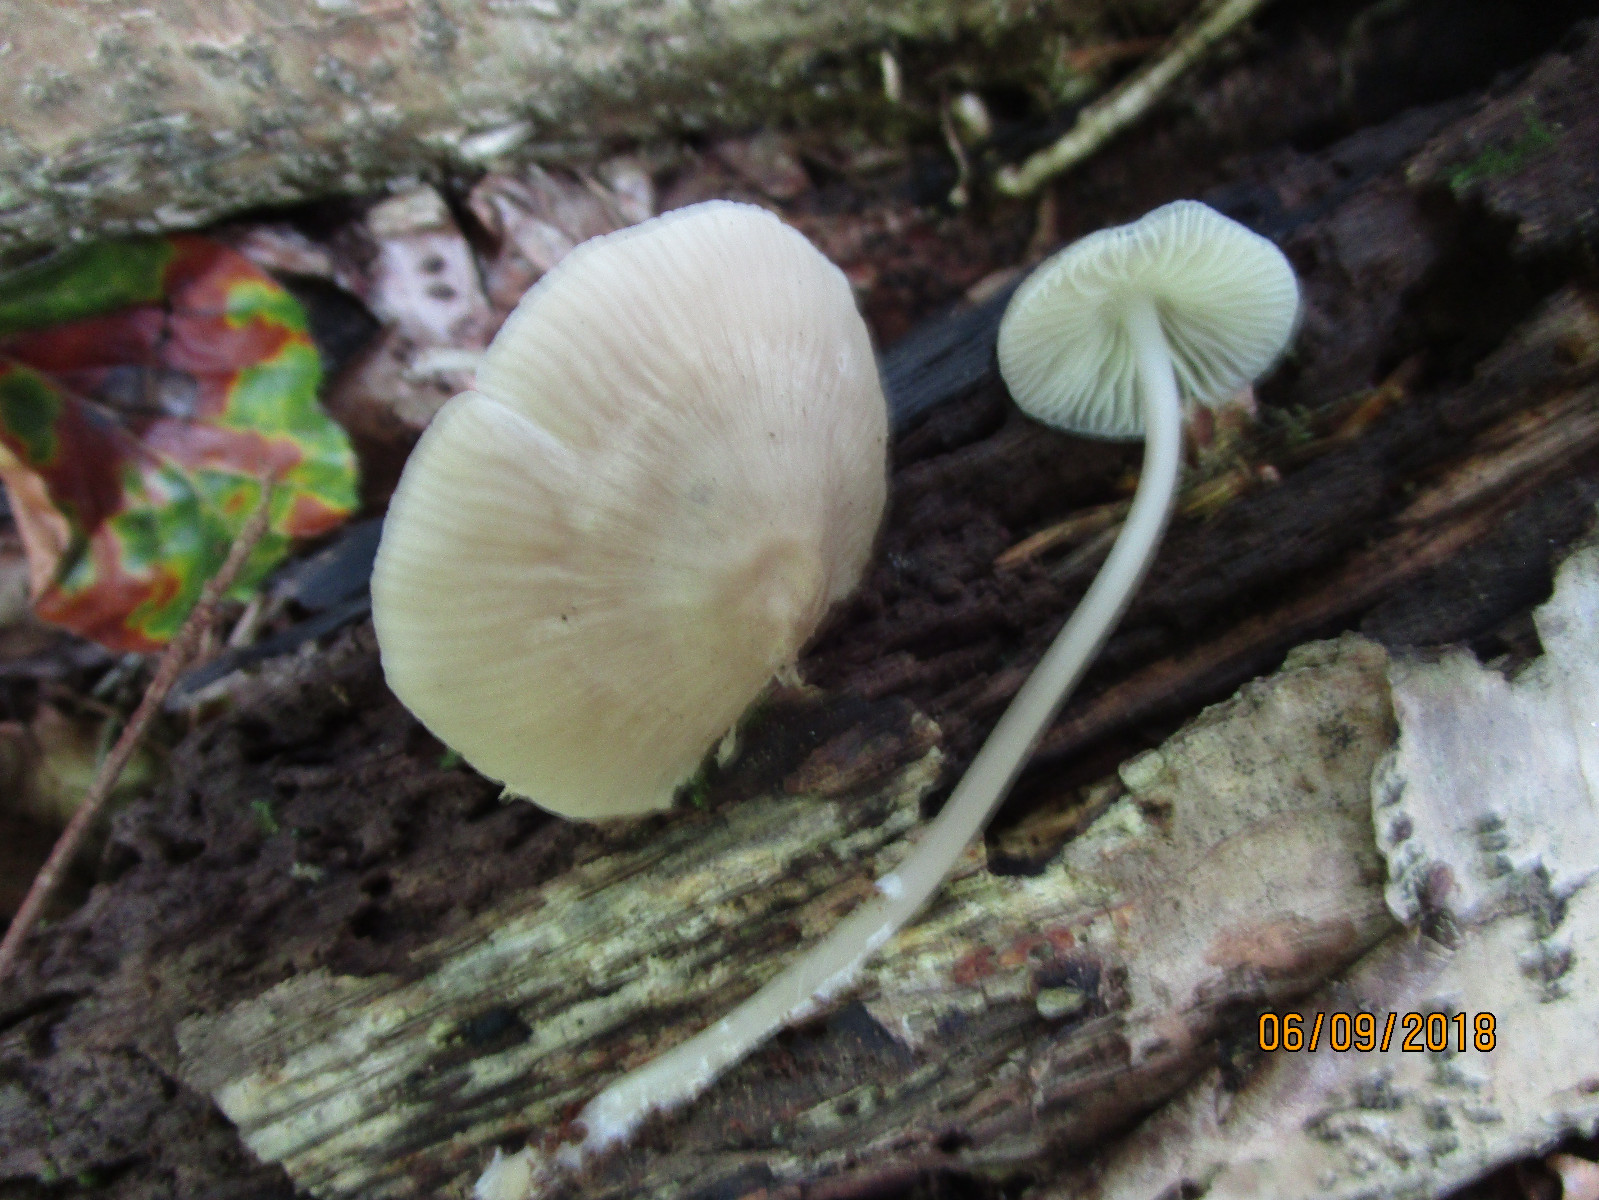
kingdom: Fungi
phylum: Basidiomycota
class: Agaricomycetes
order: Agaricales
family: Mycenaceae
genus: Mycena
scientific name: Mycena galericulata
